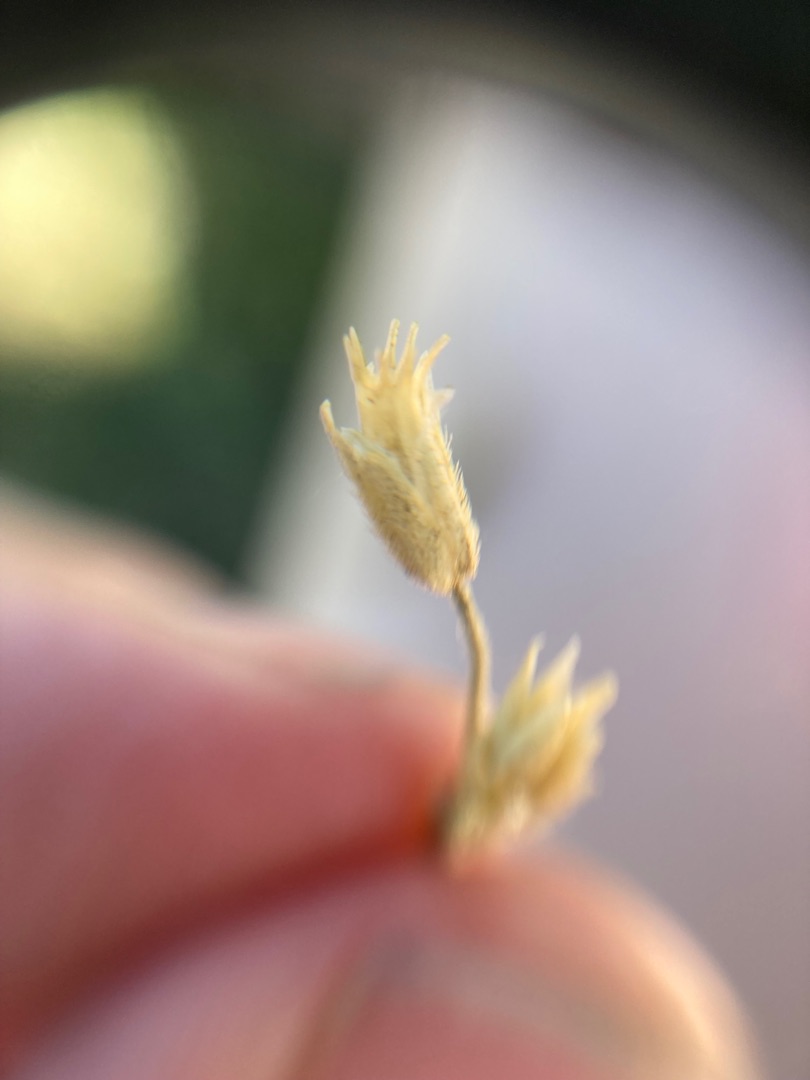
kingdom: Plantae
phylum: Tracheophyta
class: Magnoliopsida
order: Caryophyllales
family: Caryophyllaceae
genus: Cerastium
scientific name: Cerastium fontanum
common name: Almindelig hønsetarm
